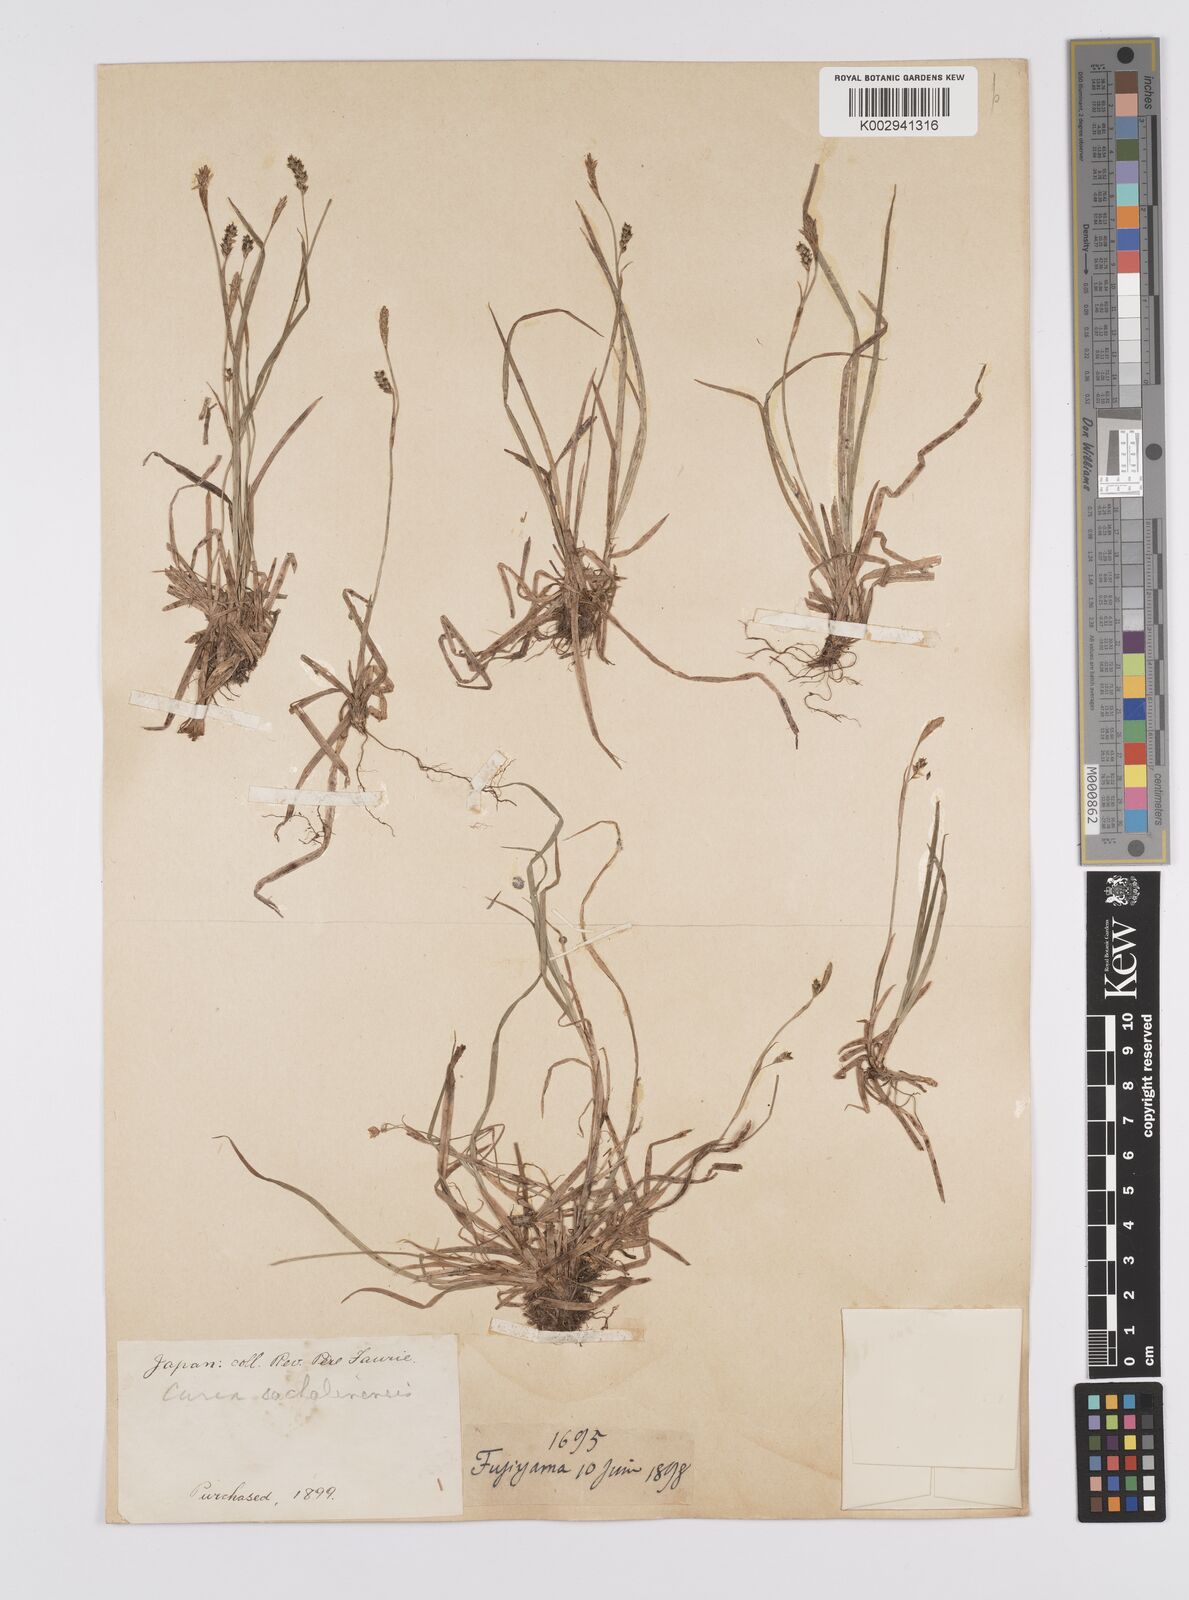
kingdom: Plantae
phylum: Tracheophyta
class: Liliopsida
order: Poales
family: Cyperaceae
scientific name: Cyperaceae
